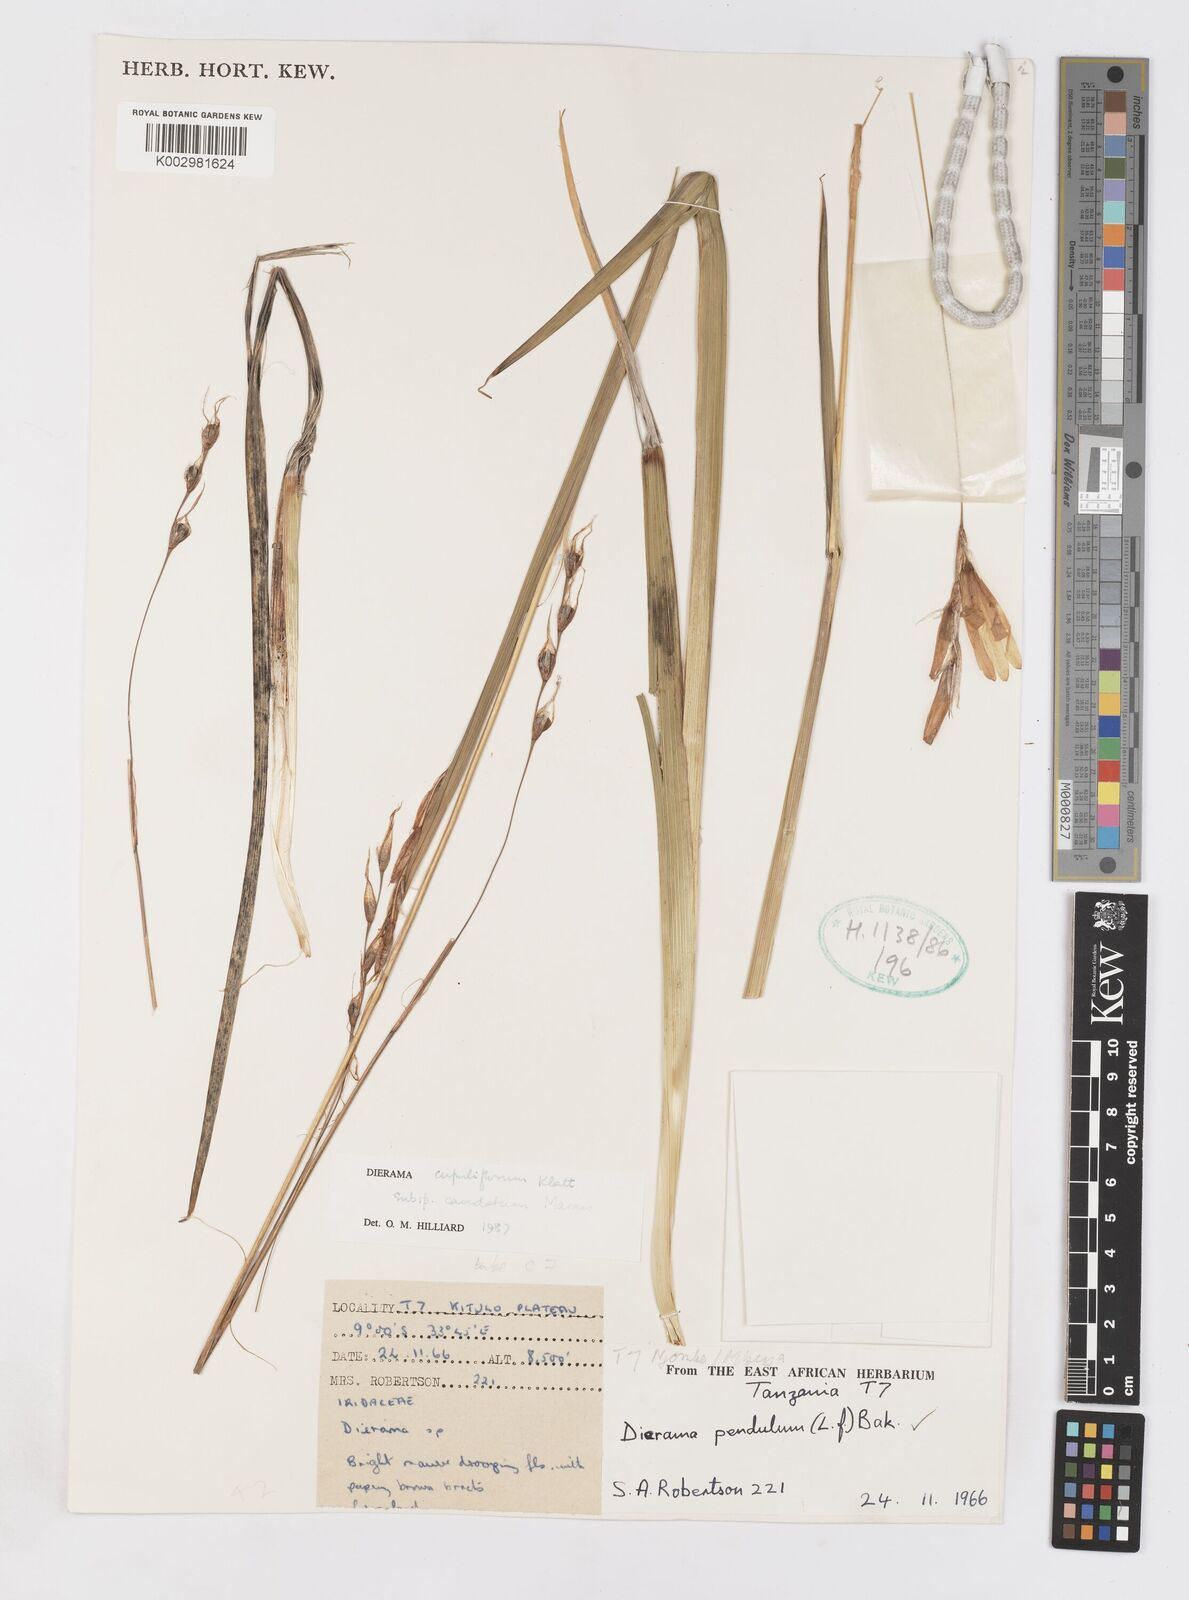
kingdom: Plantae
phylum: Tracheophyta
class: Liliopsida
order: Asparagales
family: Iridaceae
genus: Dierama
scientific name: Dierama cupuliflorum
